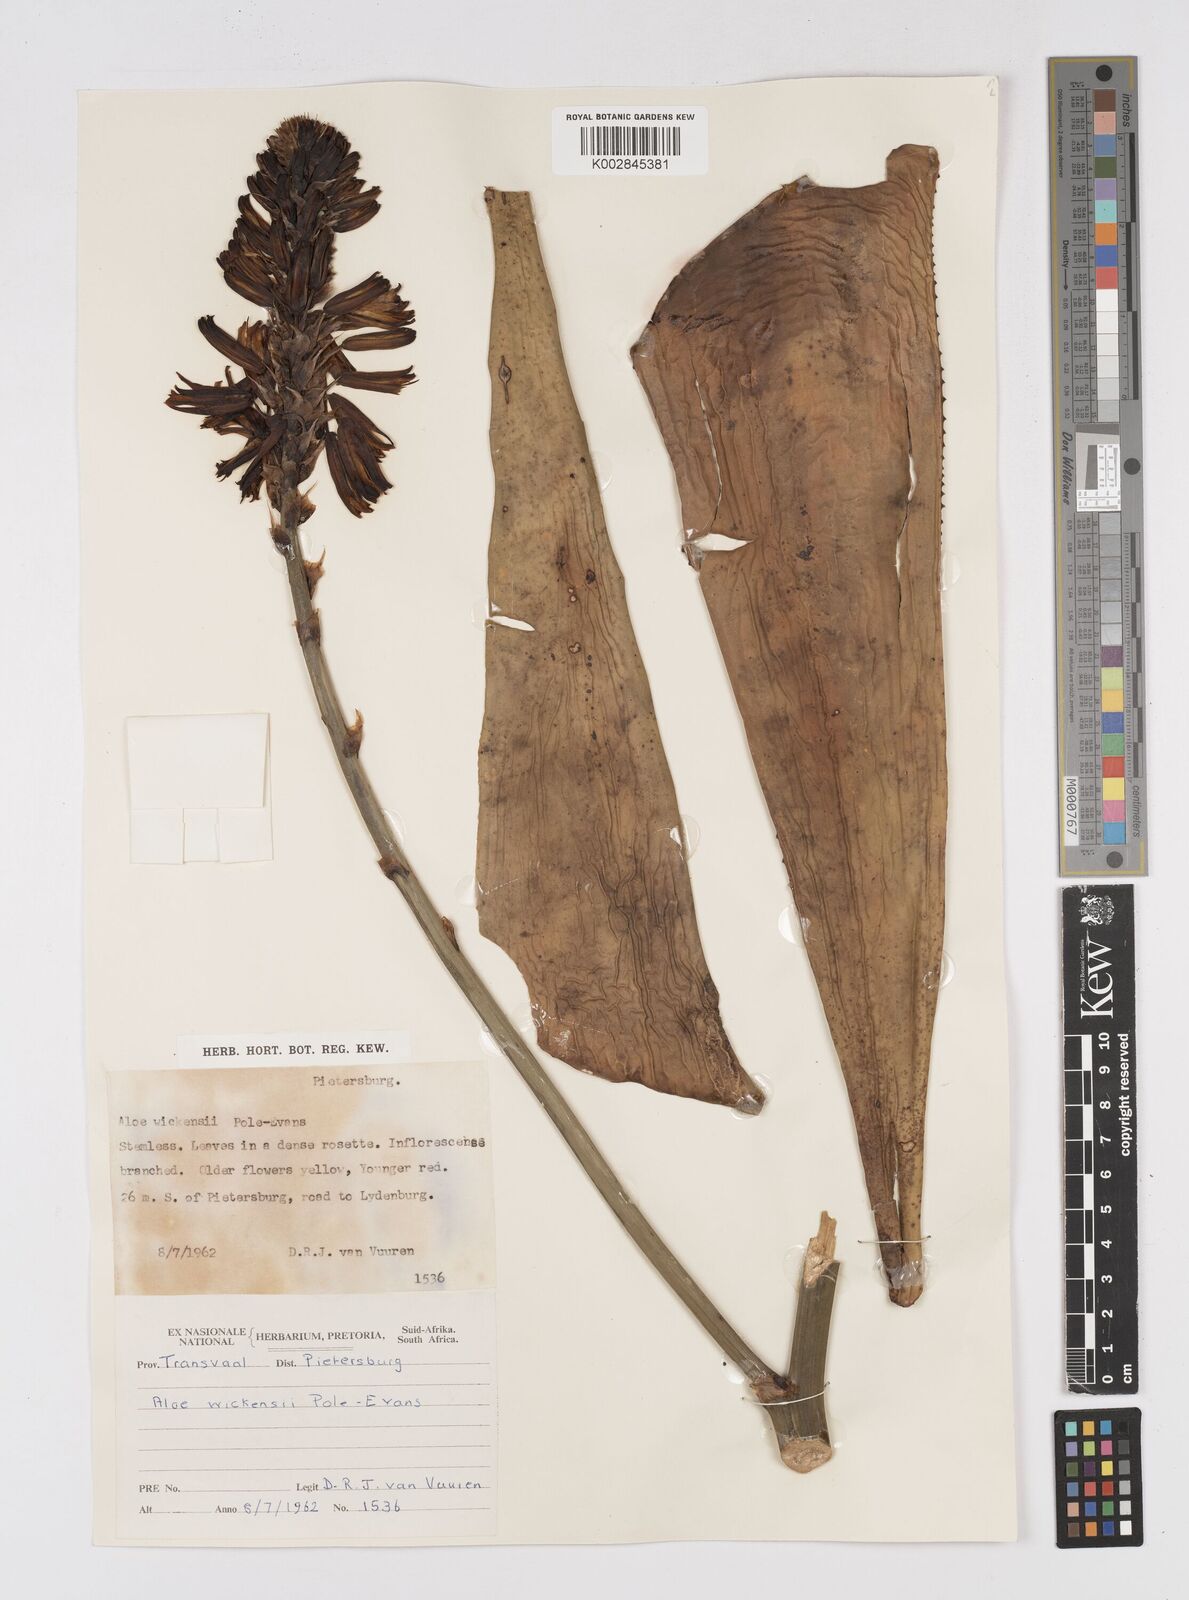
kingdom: Plantae
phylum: Tracheophyta
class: Liliopsida
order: Asparagales
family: Asphodelaceae
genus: Aloe
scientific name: Aloe wickensii
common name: Wickens' aloe
